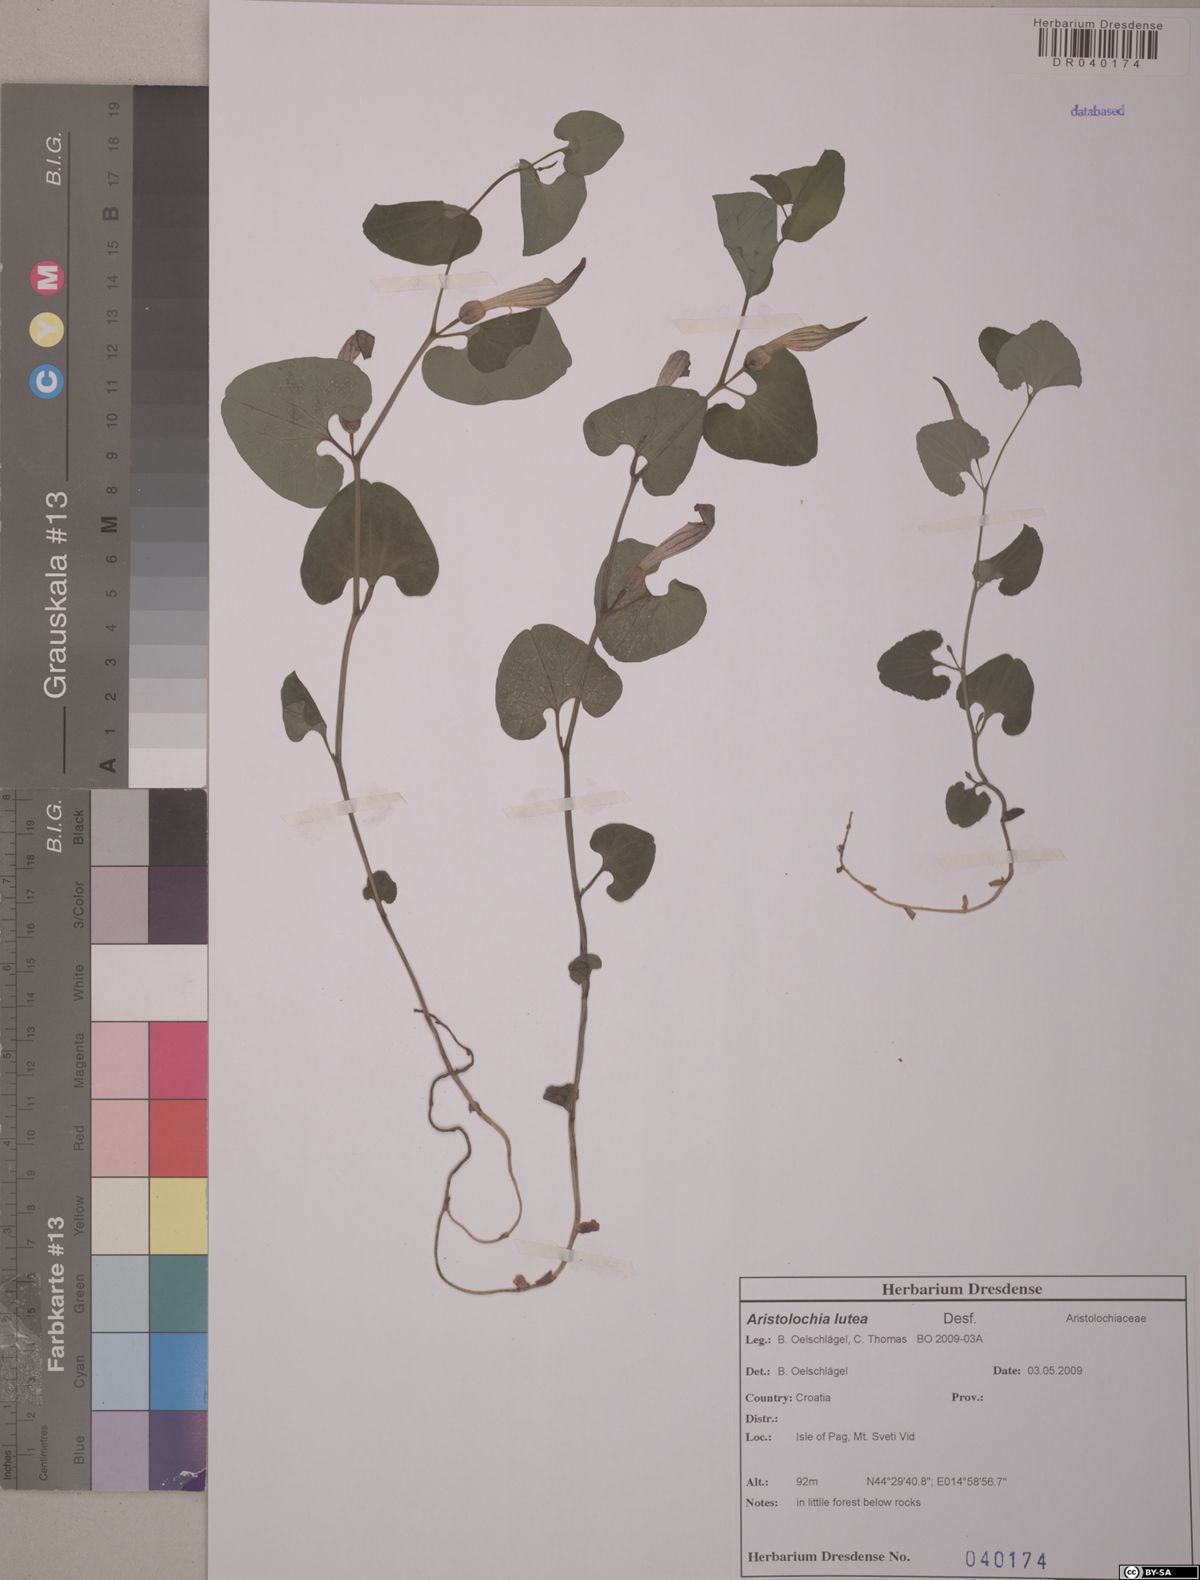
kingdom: Plantae
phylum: Tracheophyta
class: Magnoliopsida
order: Piperales
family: Aristolochiaceae
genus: Aristolochia
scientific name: Aristolochia lutea
